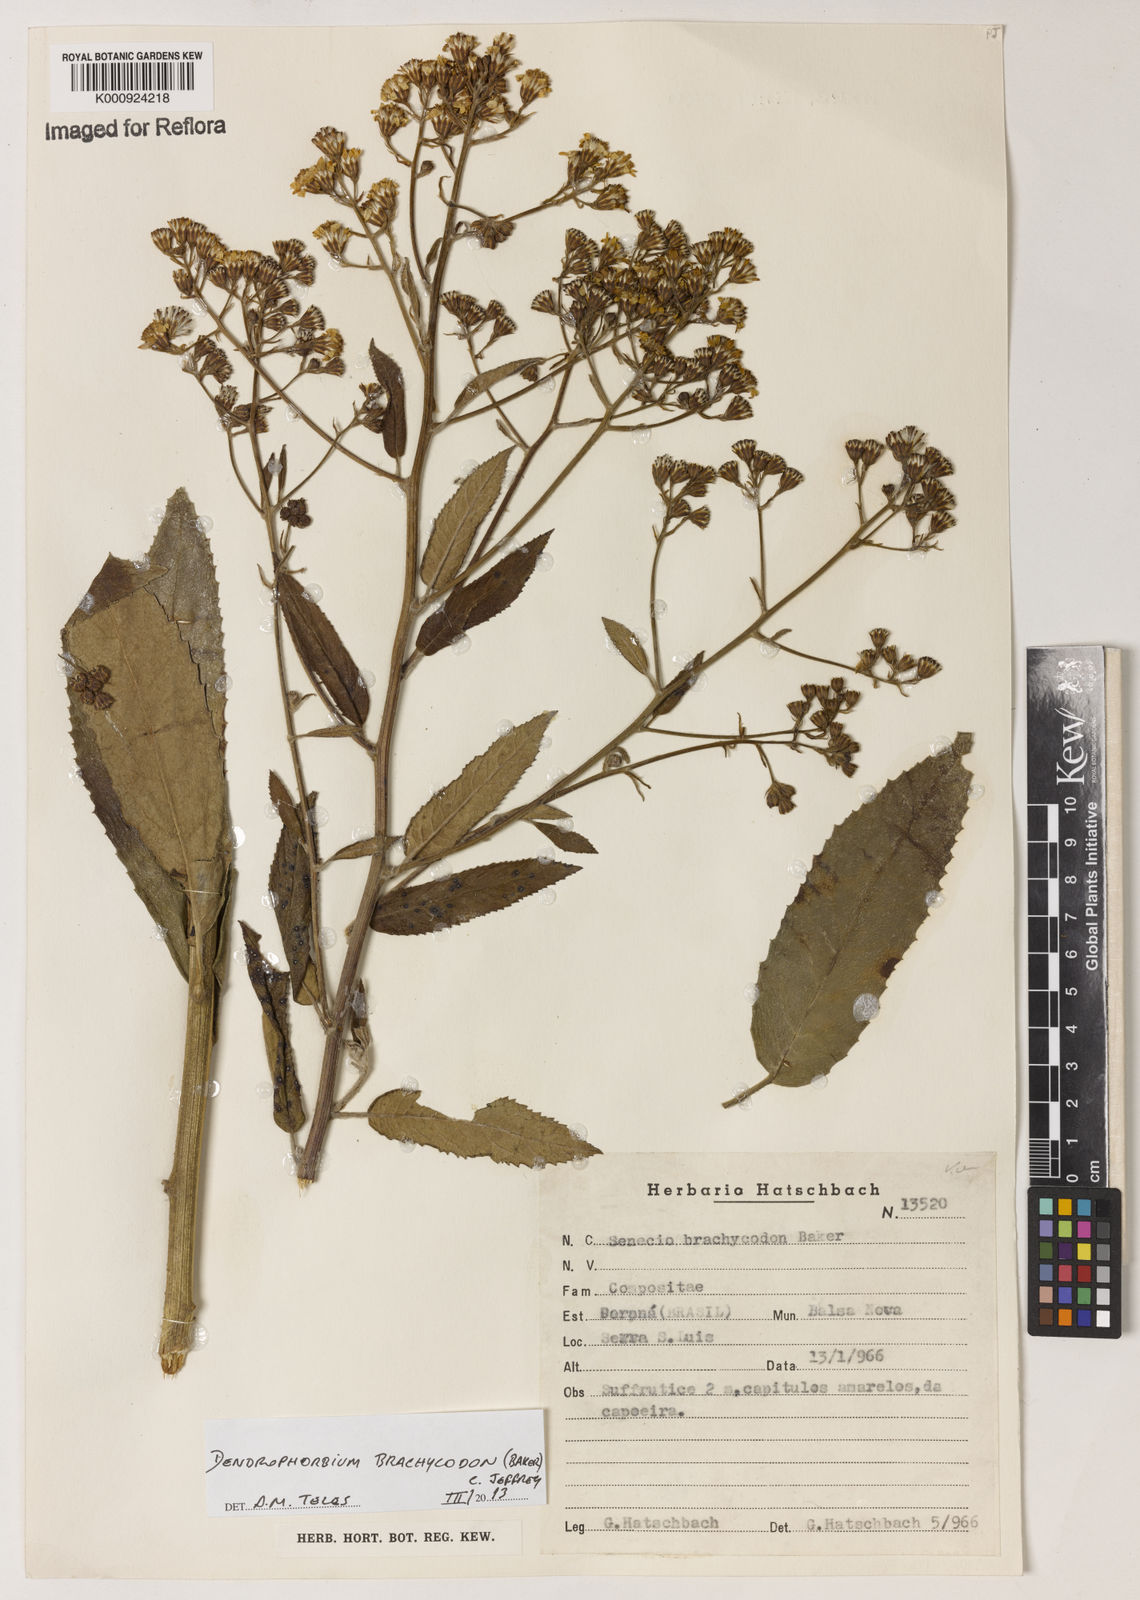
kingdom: Plantae
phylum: Tracheophyta
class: Magnoliopsida
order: Asterales
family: Asteraceae
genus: Dendrophorbium
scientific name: Dendrophorbium brachycodon
